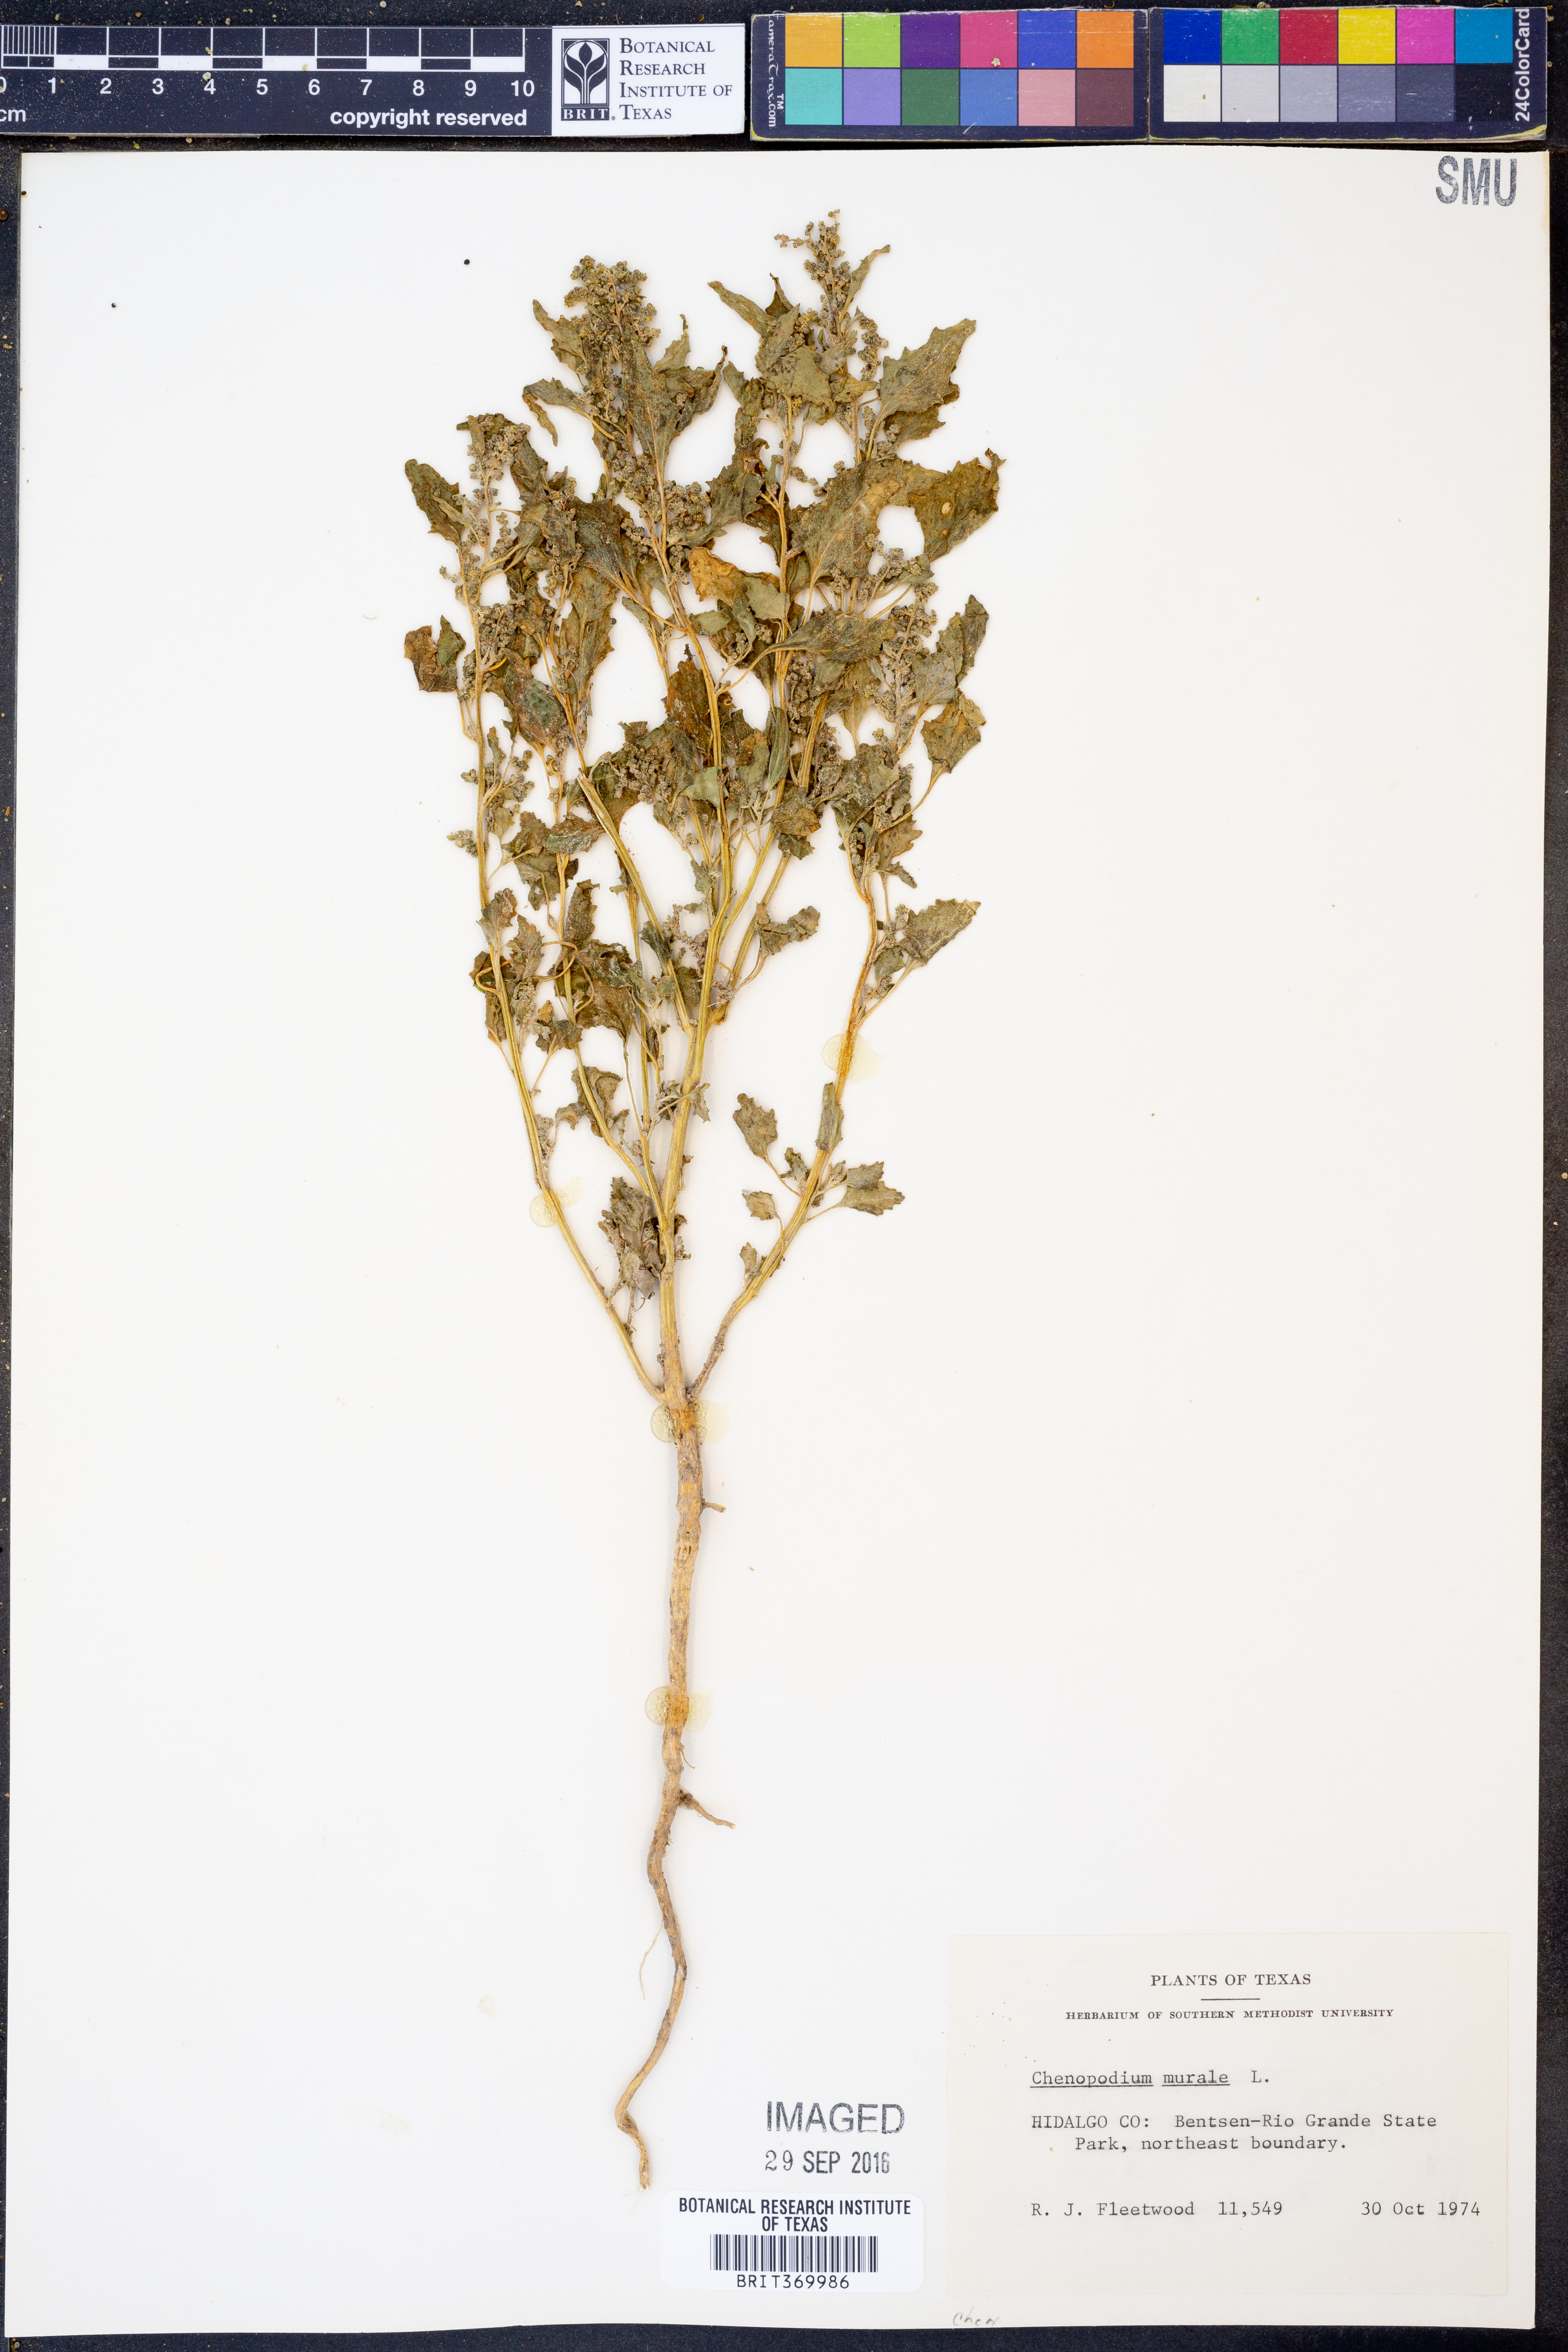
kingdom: Plantae
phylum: Tracheophyta
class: Magnoliopsida
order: Caryophyllales
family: Amaranthaceae
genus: Chenopodiastrum
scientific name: Chenopodiastrum murale
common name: Sowbane
